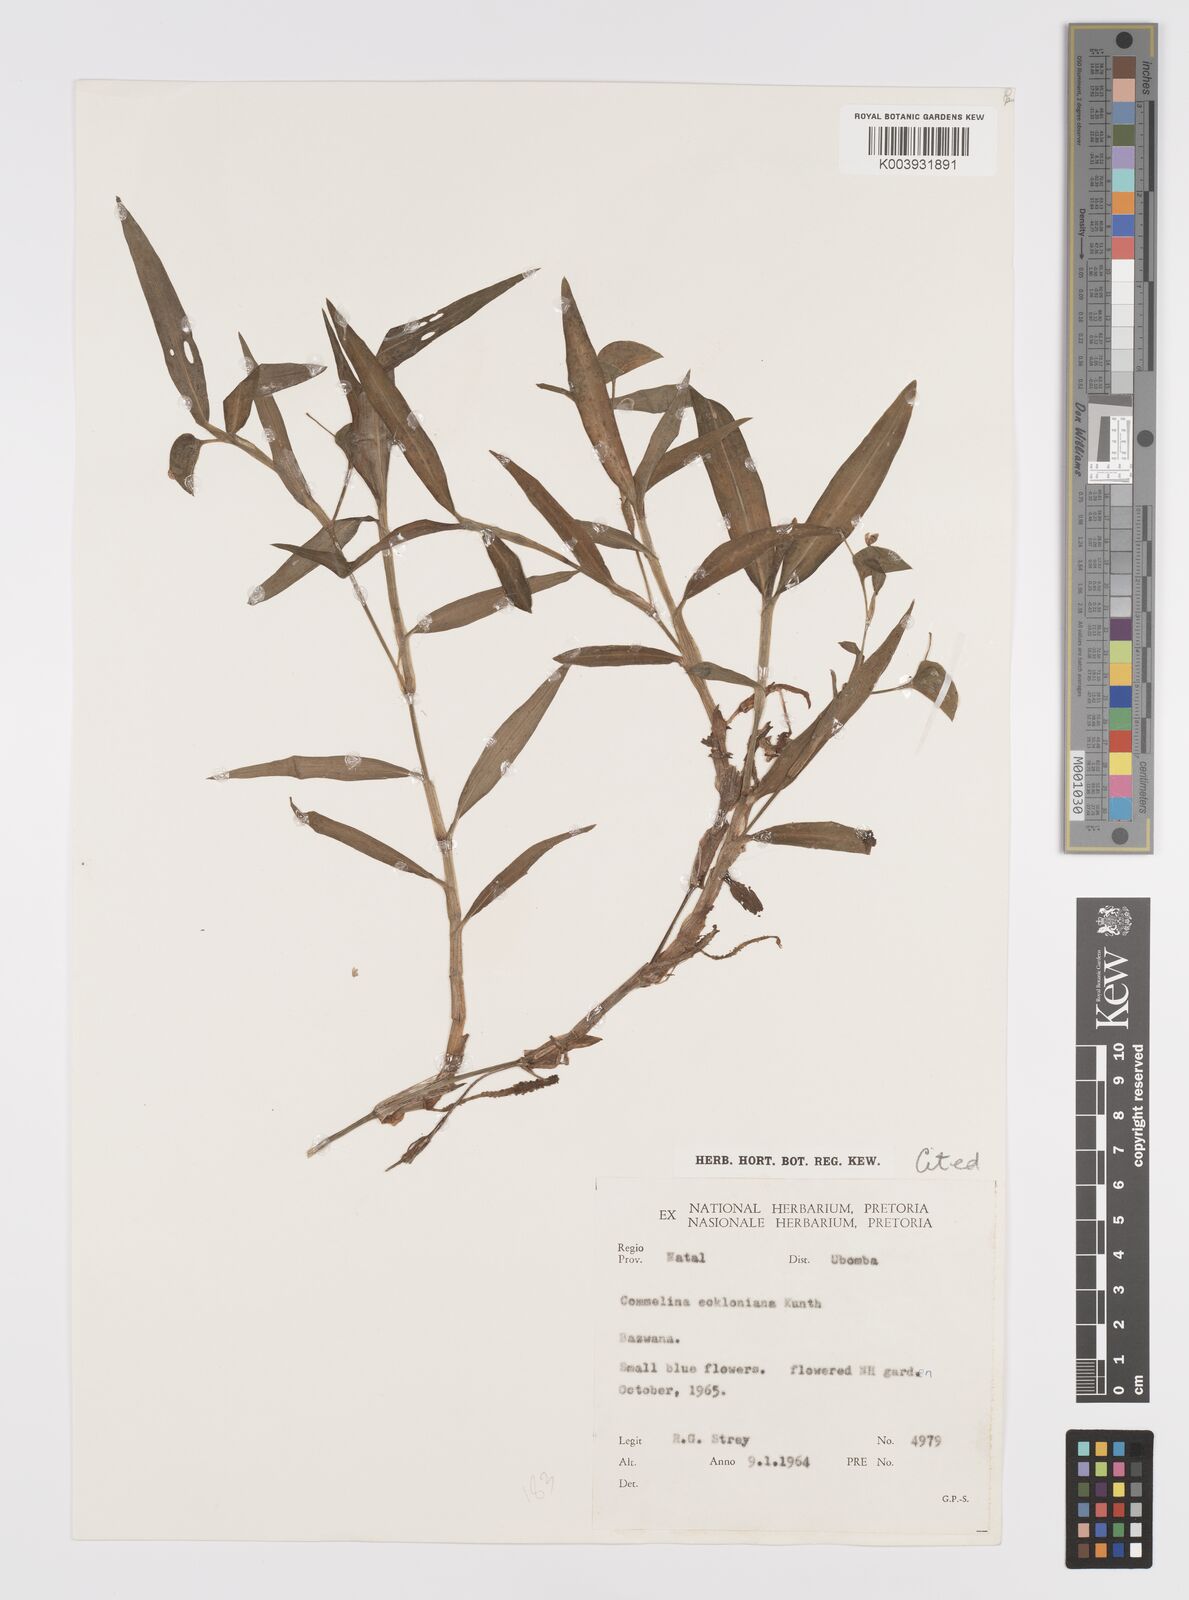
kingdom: Plantae
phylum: Tracheophyta
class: Liliopsida
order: Commelinales
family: Commelinaceae
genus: Commelina
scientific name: Commelina eckloniana
